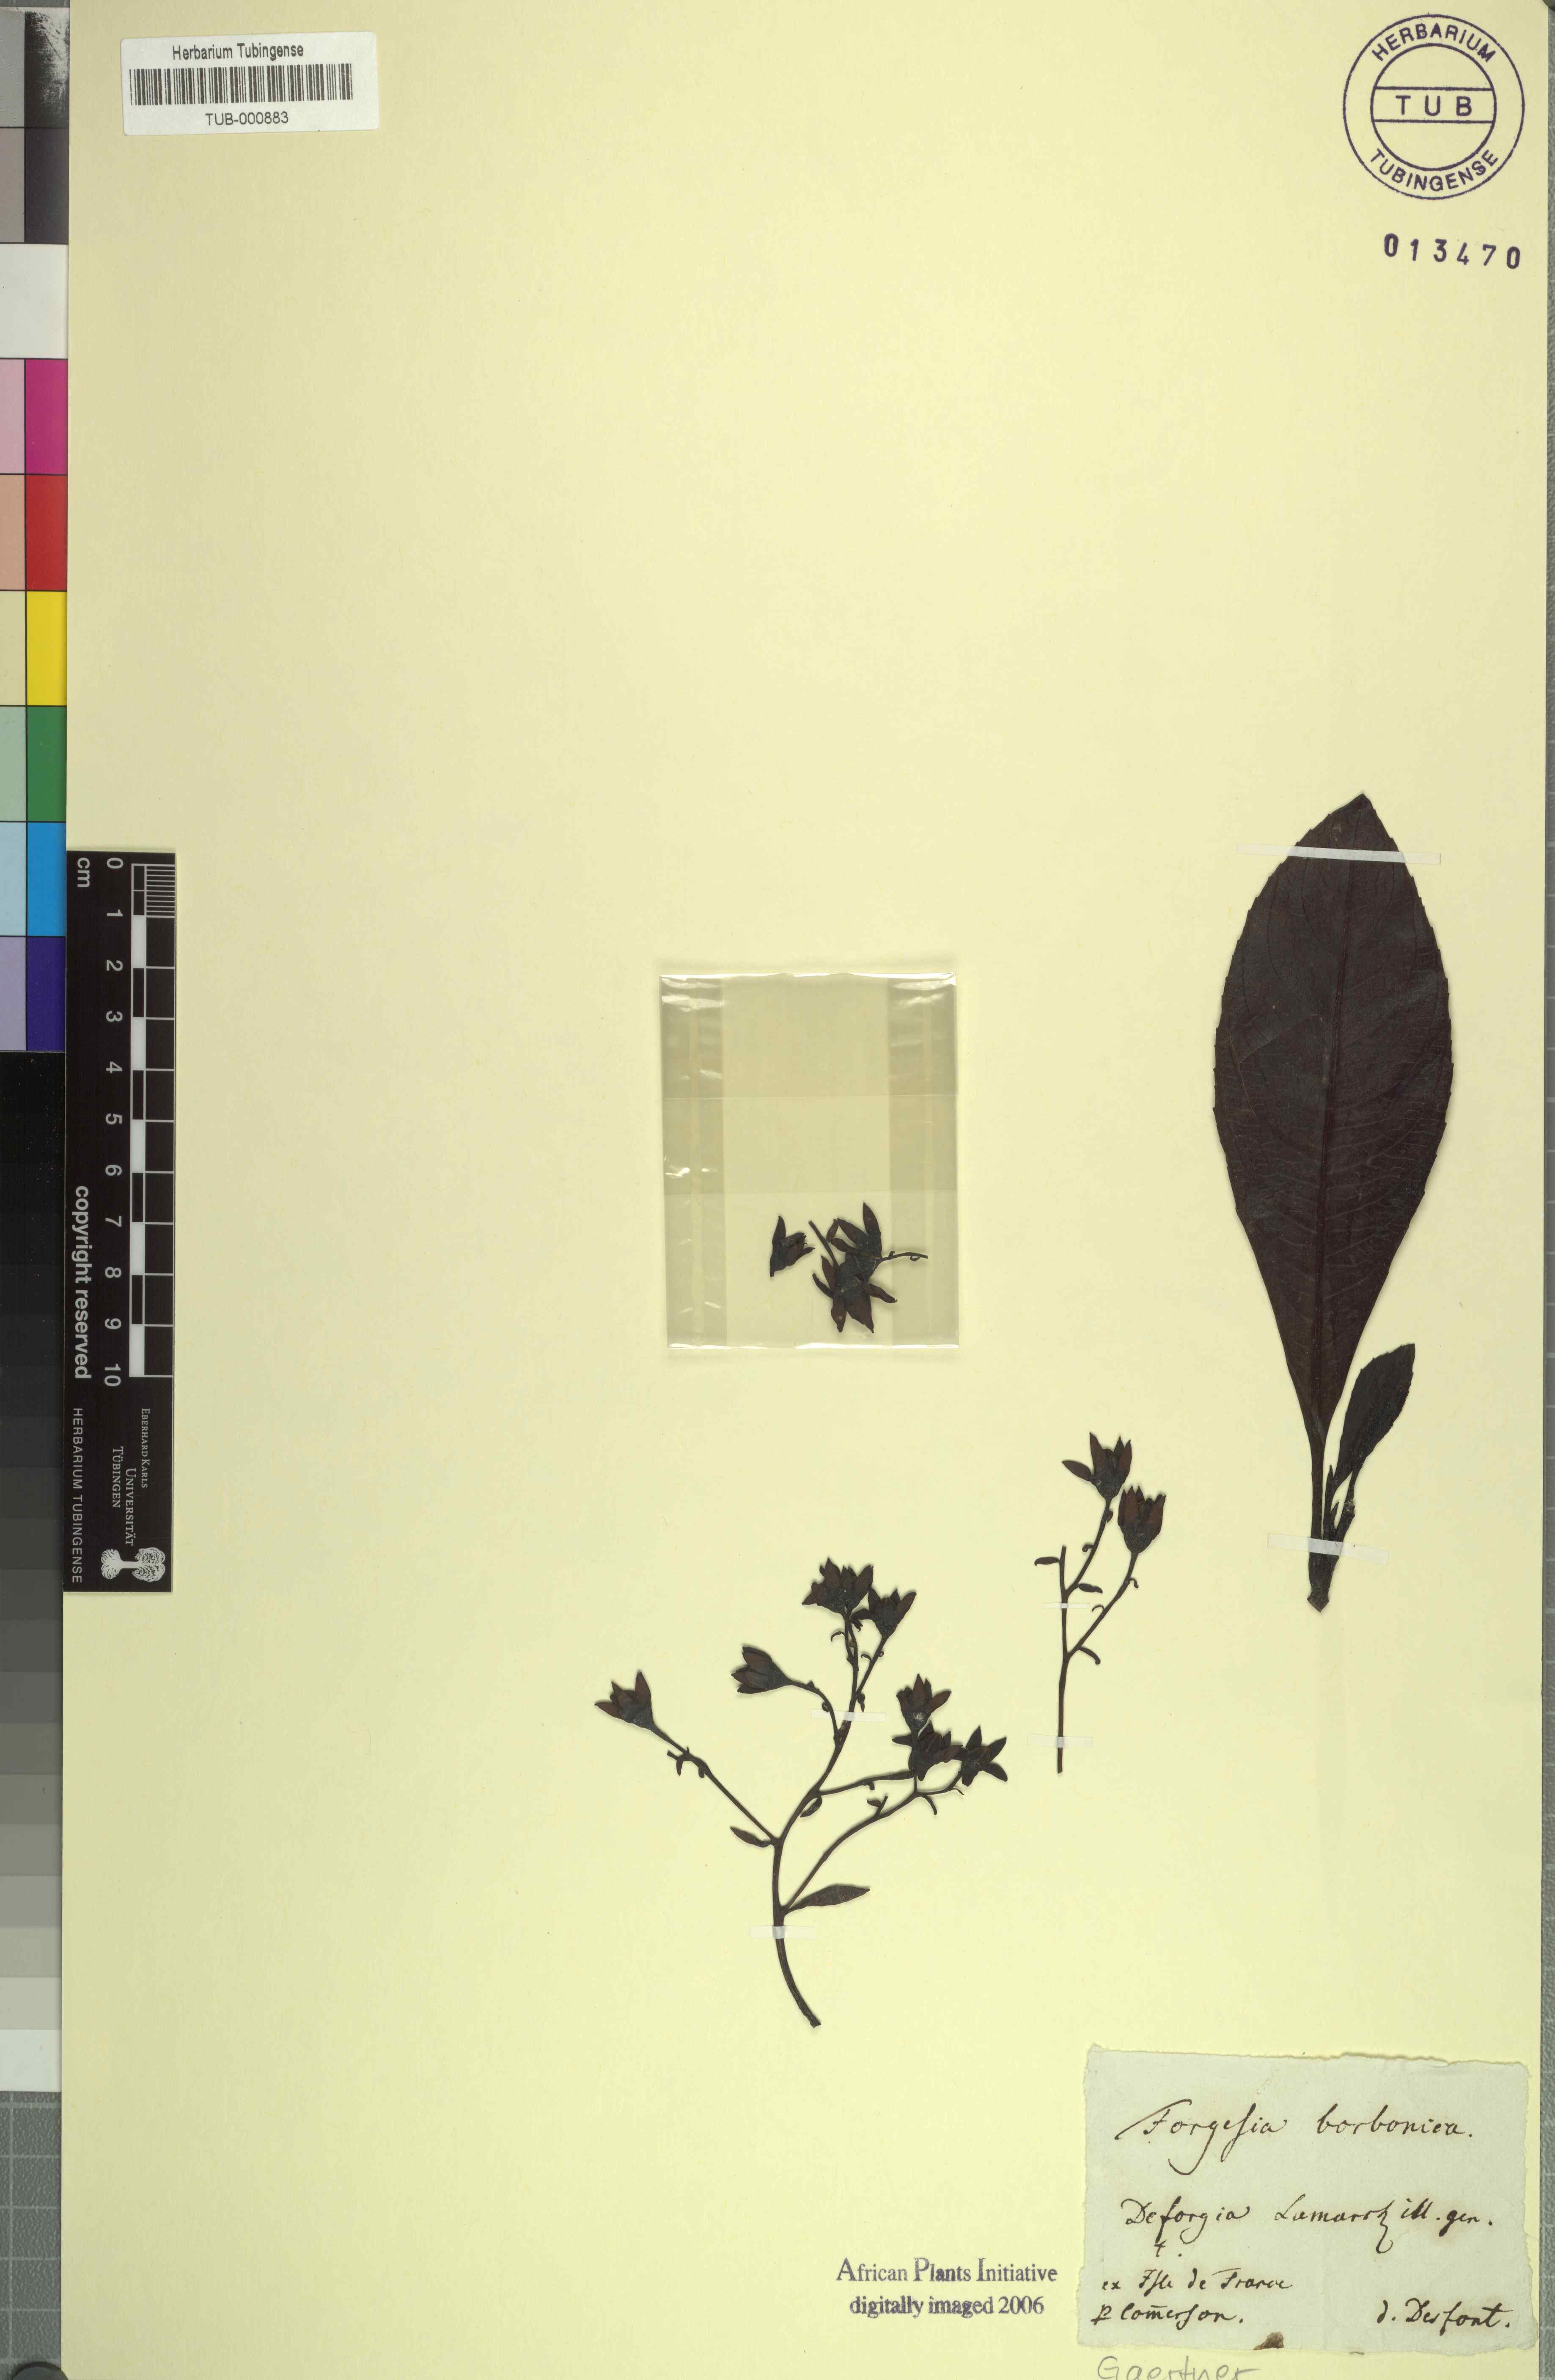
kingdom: Plantae
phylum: Tracheophyta
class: Magnoliopsida
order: Escalloniales
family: Escalloniaceae
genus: Forgesia
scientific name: Forgesia racemosa
